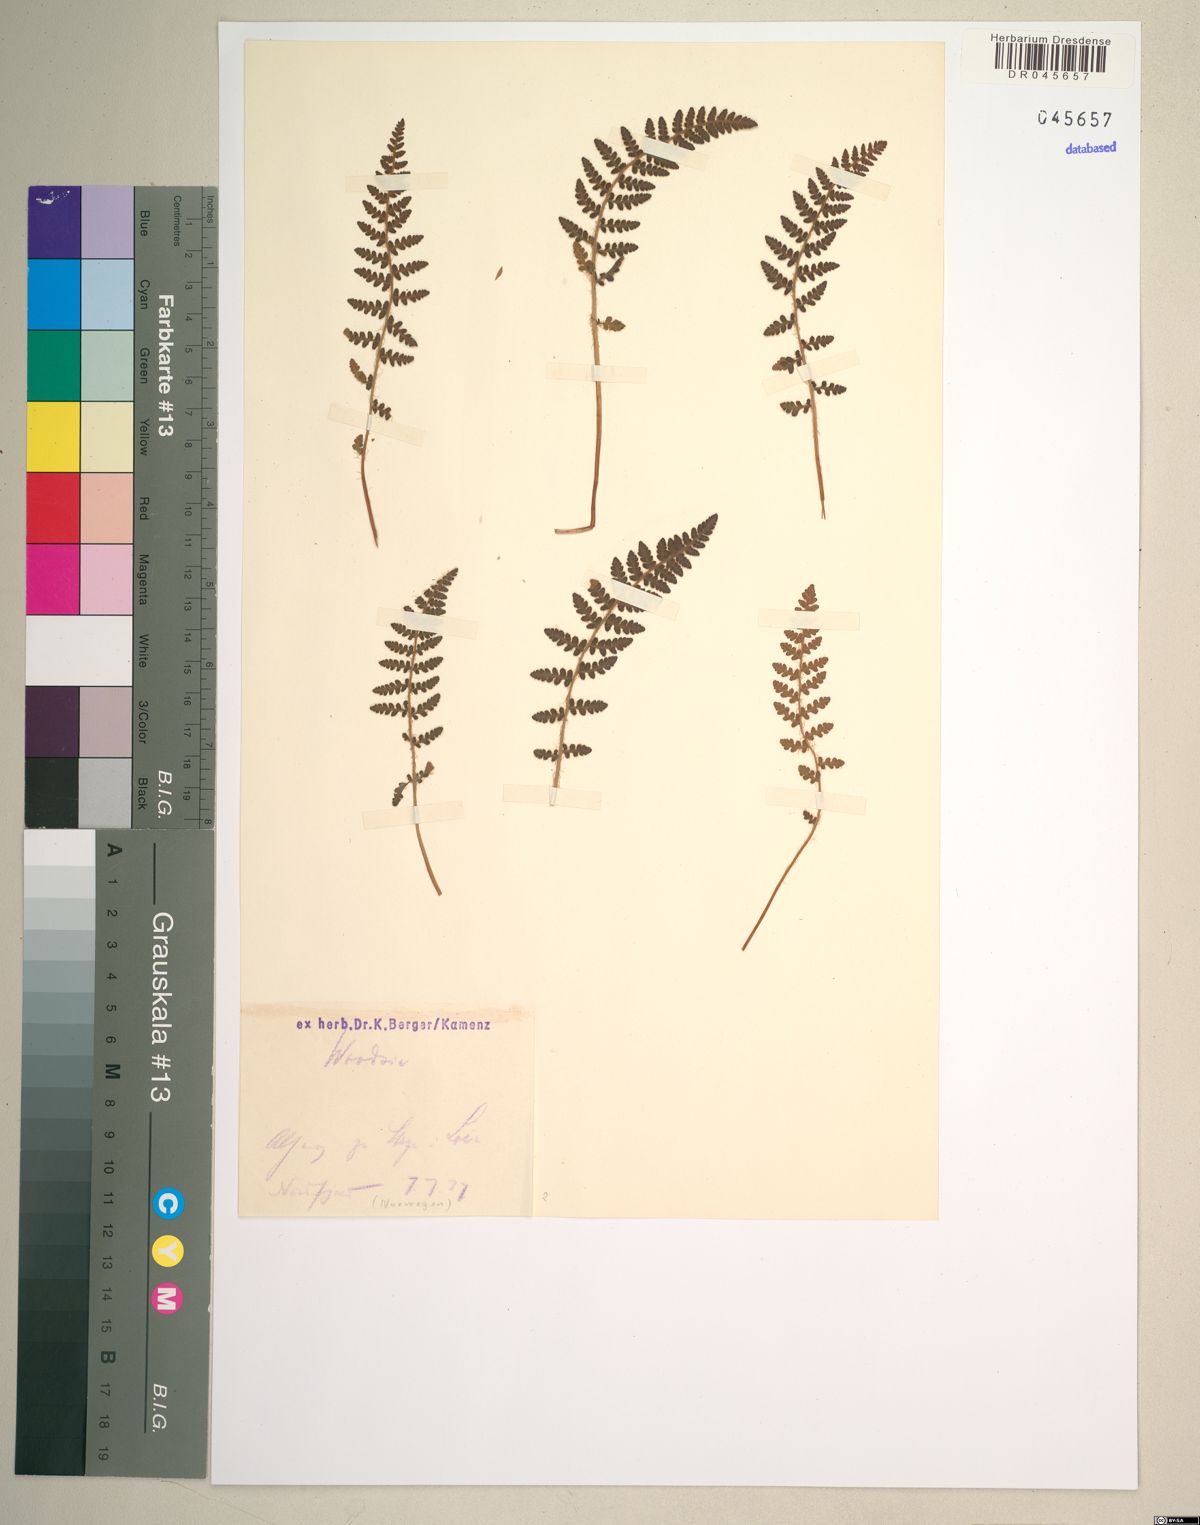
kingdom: Plantae
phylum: Tracheophyta
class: Polypodiopsida
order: Polypodiales
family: Woodsiaceae
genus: Woodsia
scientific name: Woodsia
